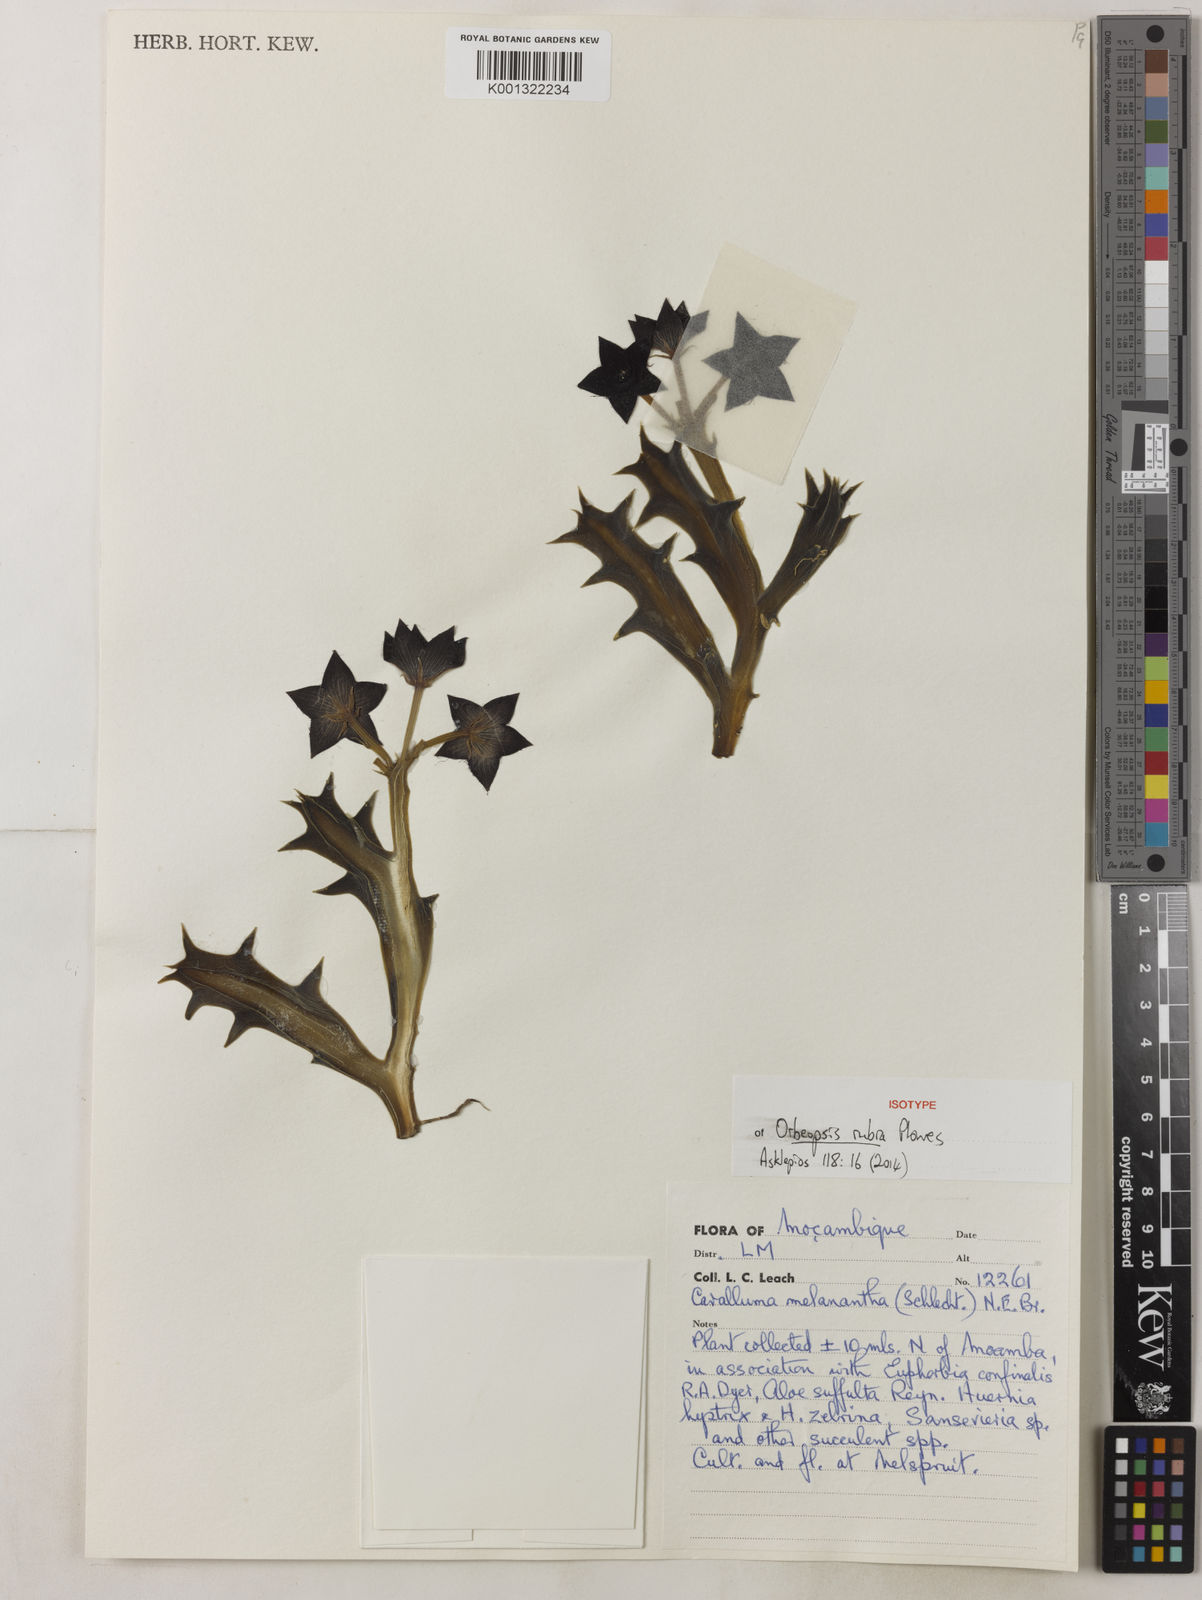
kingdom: Plantae
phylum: Tracheophyta
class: Magnoliopsida
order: Gentianales
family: Apocynaceae
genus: Ceropegia
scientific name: Ceropegia melanantha
